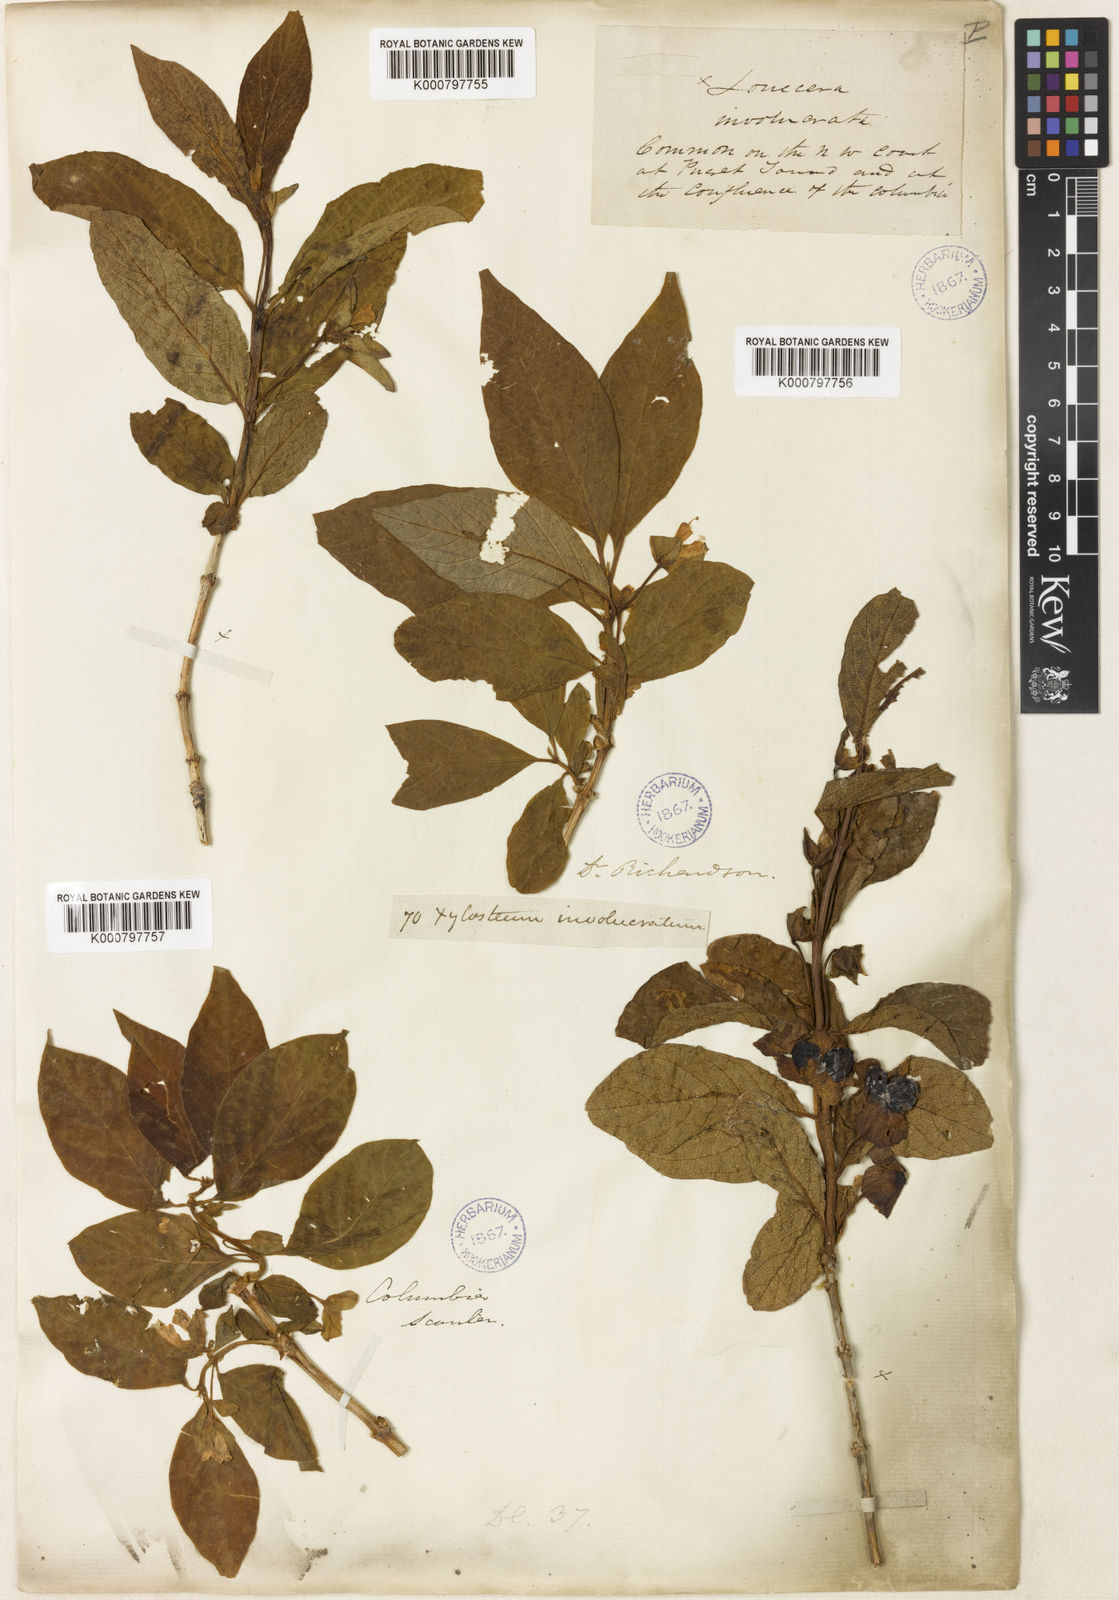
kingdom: Plantae
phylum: Tracheophyta
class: Magnoliopsida
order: Dipsacales
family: Caprifoliaceae
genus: Lonicera
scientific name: Lonicera involucrata
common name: Californian honeysuckle
